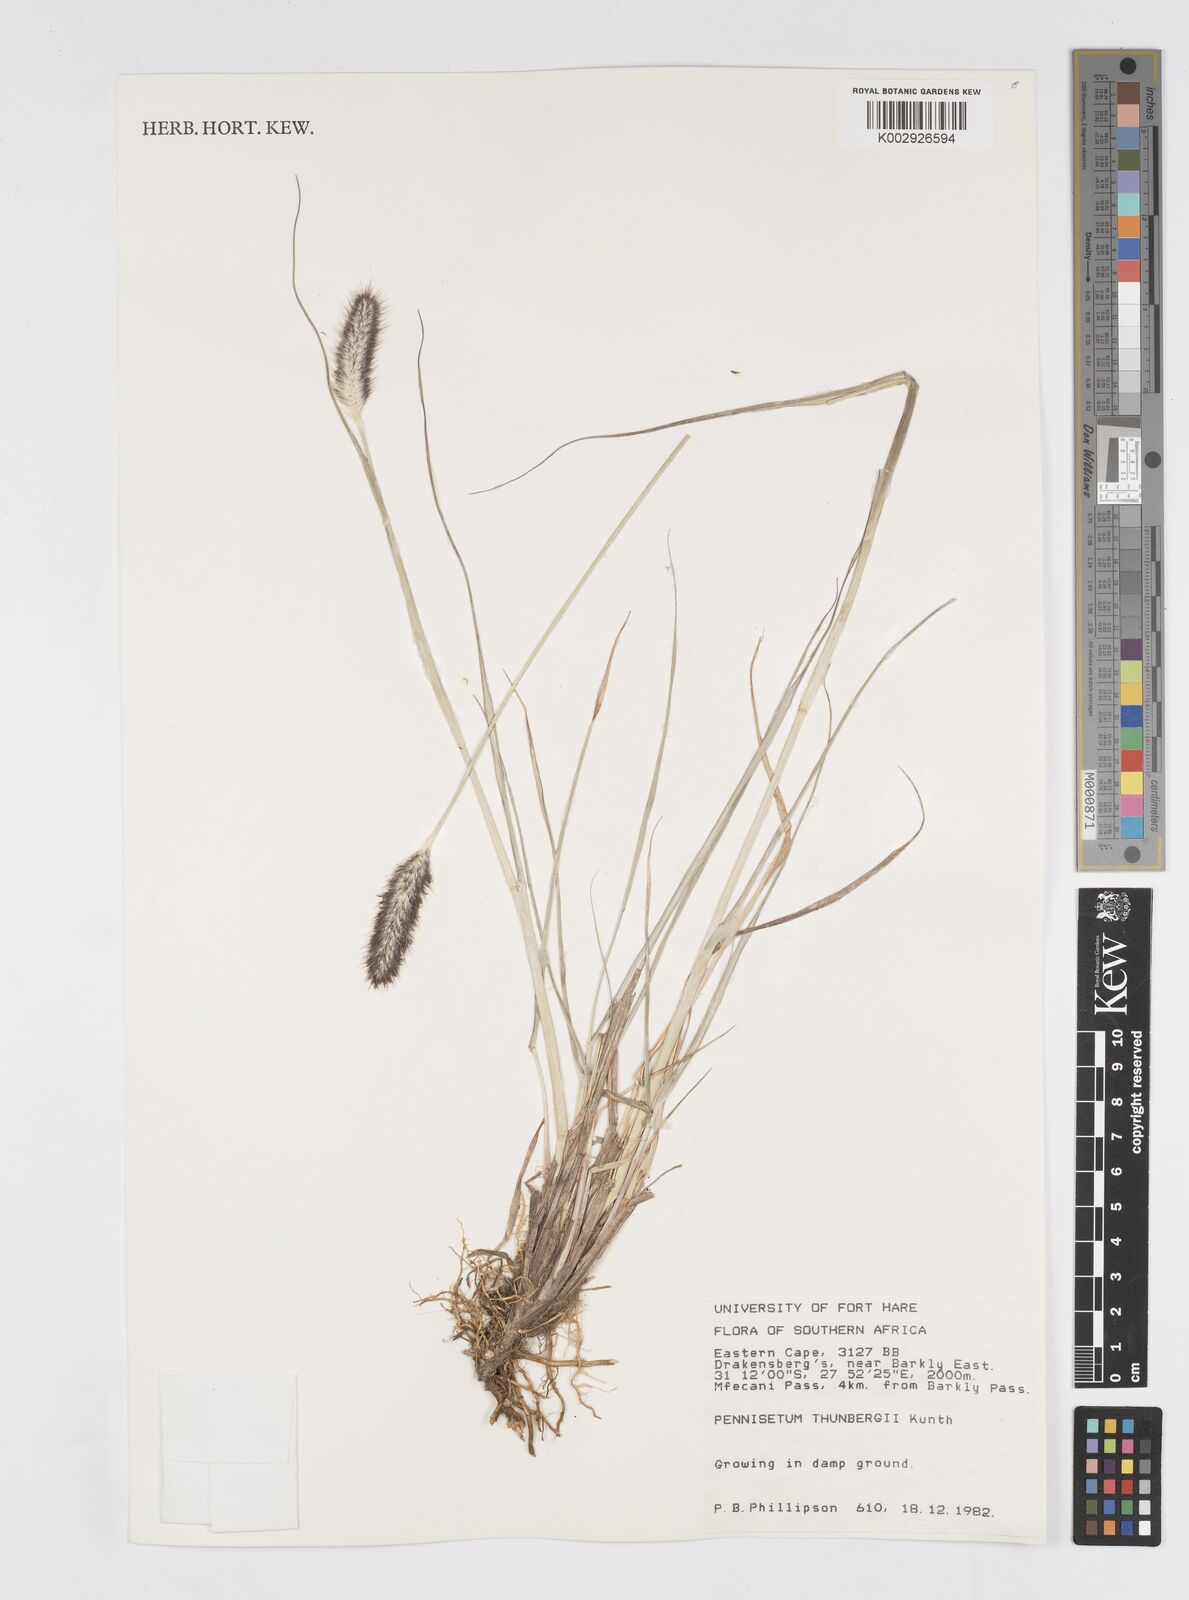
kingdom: Plantae
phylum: Tracheophyta
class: Liliopsida
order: Poales
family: Poaceae
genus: Cenchrus
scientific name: Cenchrus geniculatus
